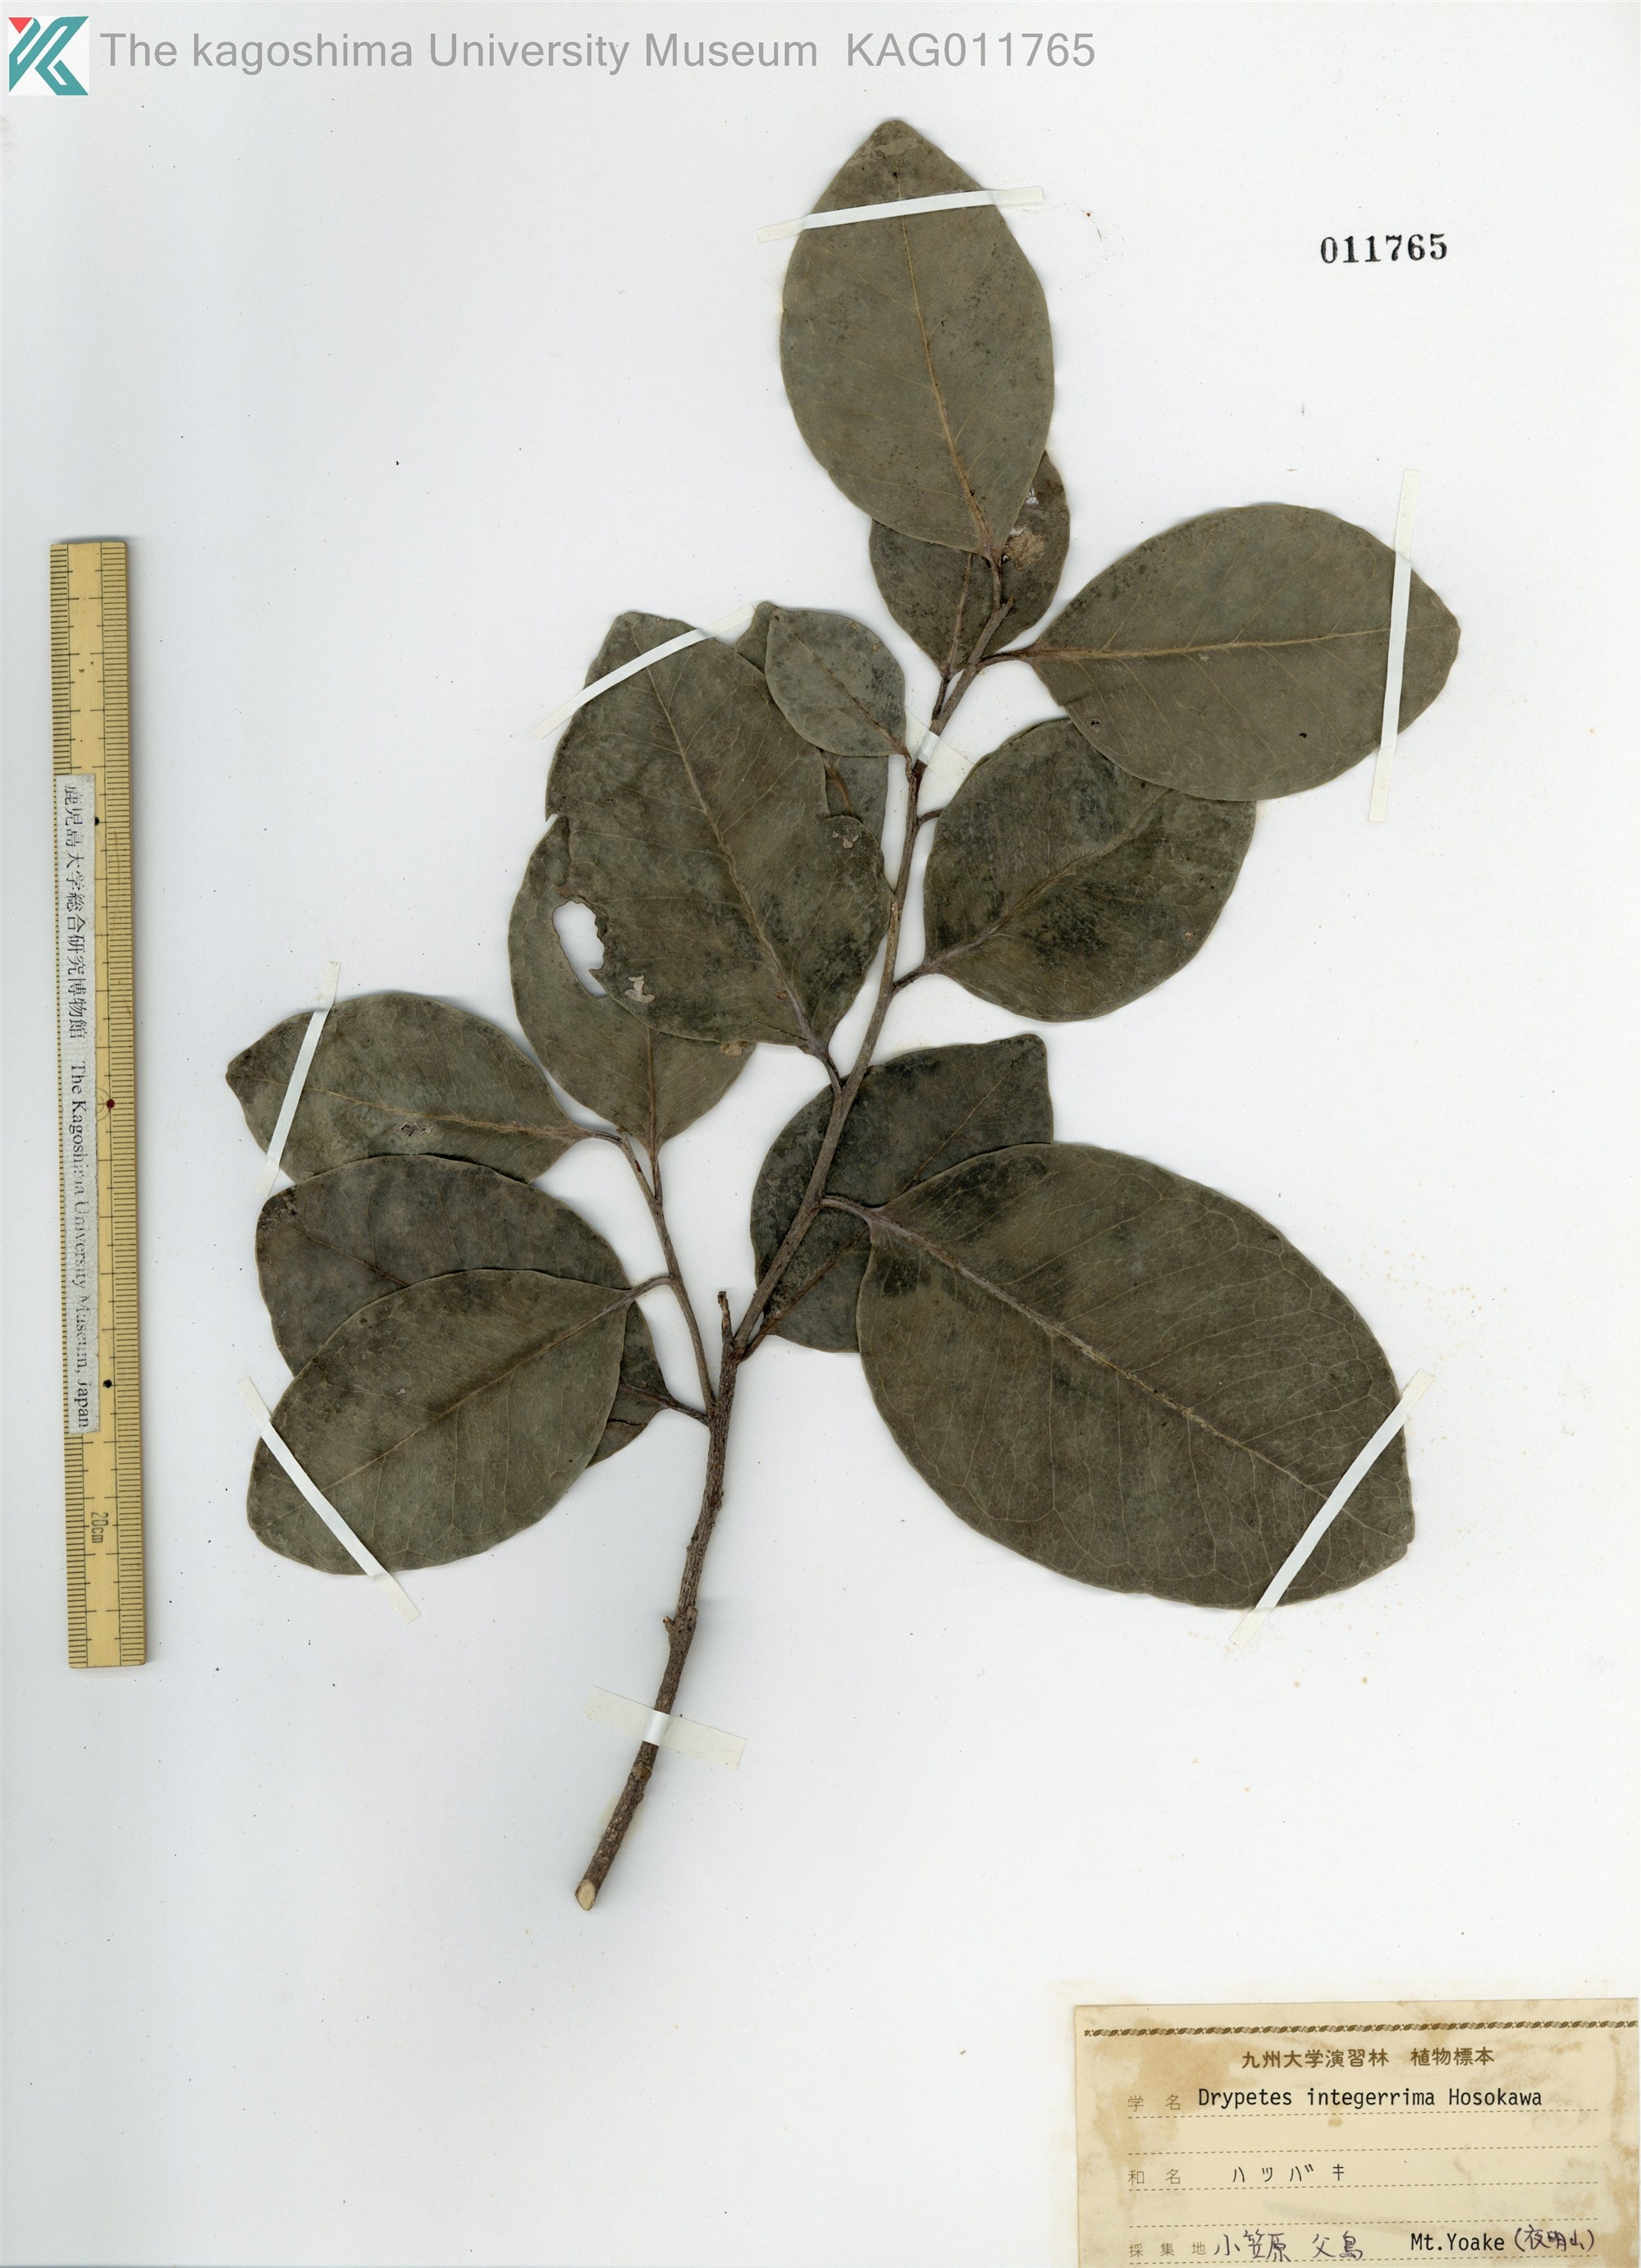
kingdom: Plantae
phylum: Tracheophyta
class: Magnoliopsida
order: Malpighiales
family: Putranjivaceae
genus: Drypetes
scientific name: Drypetes integerrima
